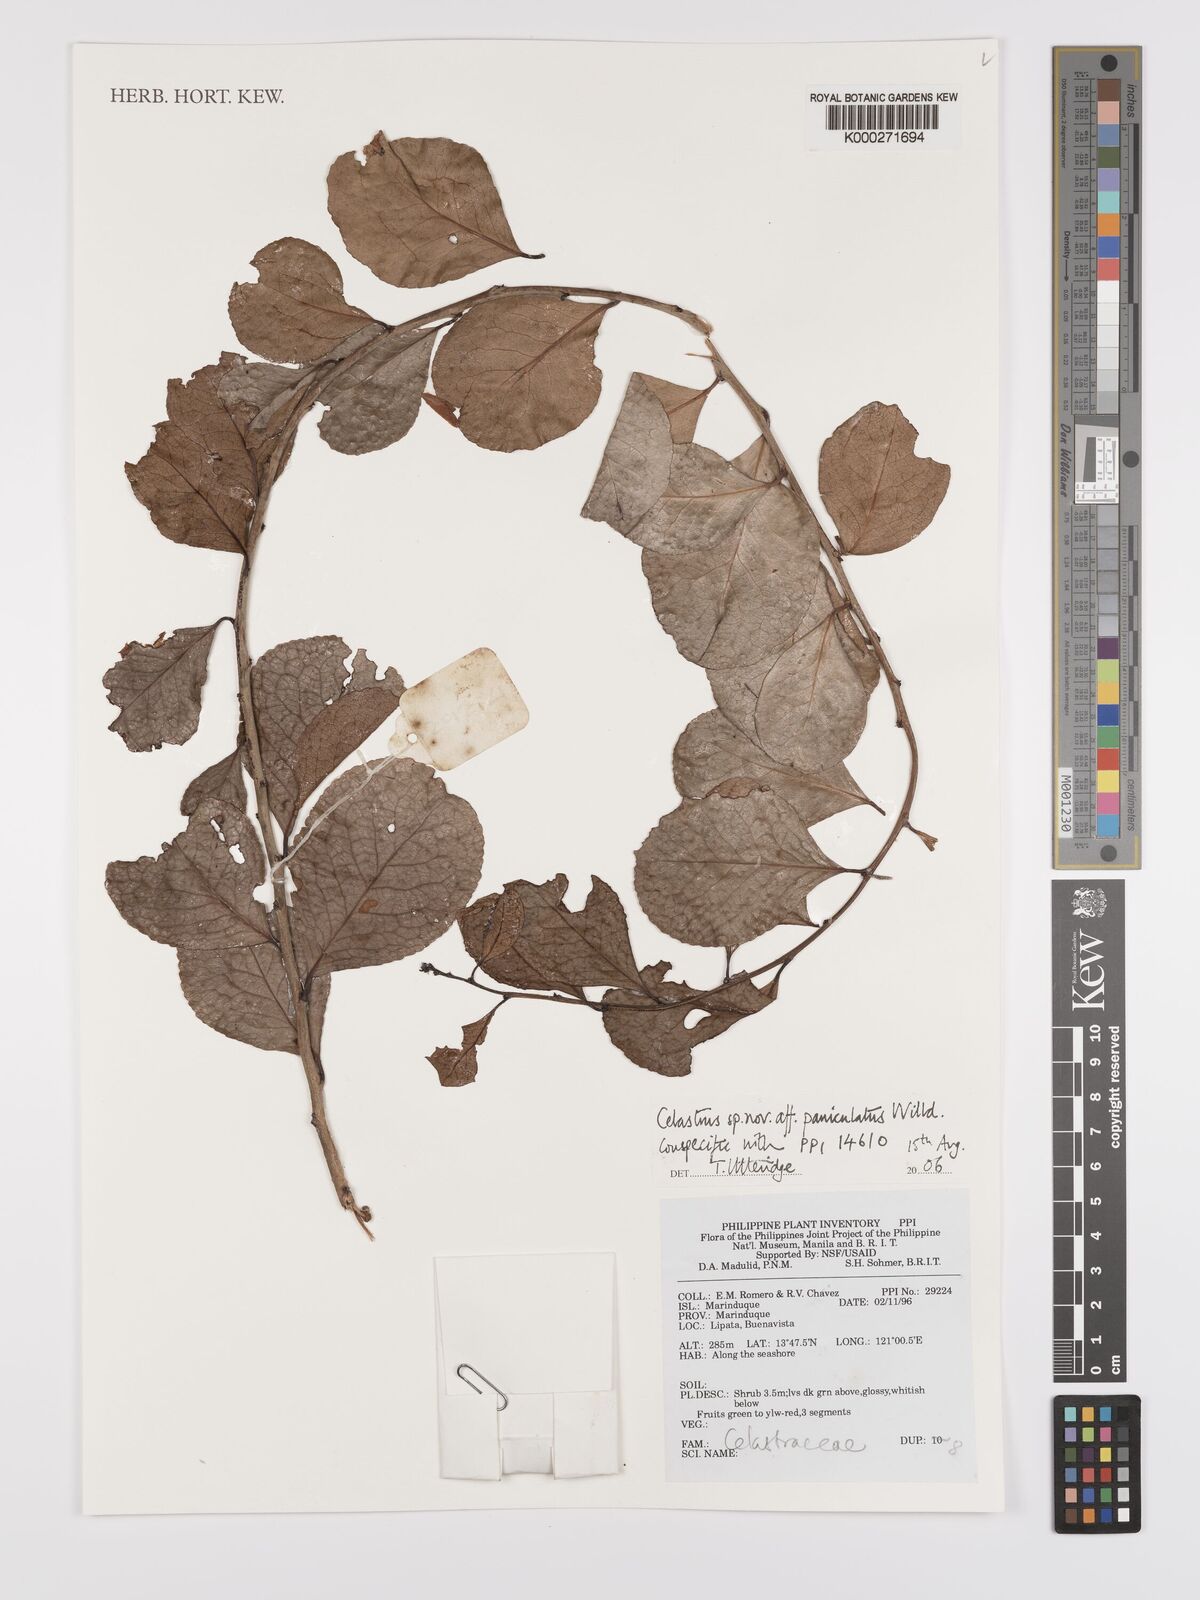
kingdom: Plantae
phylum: Tracheophyta
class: Magnoliopsida
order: Celastrales
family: Celastraceae
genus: Celastrus
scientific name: Celastrus paniculatus
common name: Oriental bittersweet; staff vine
